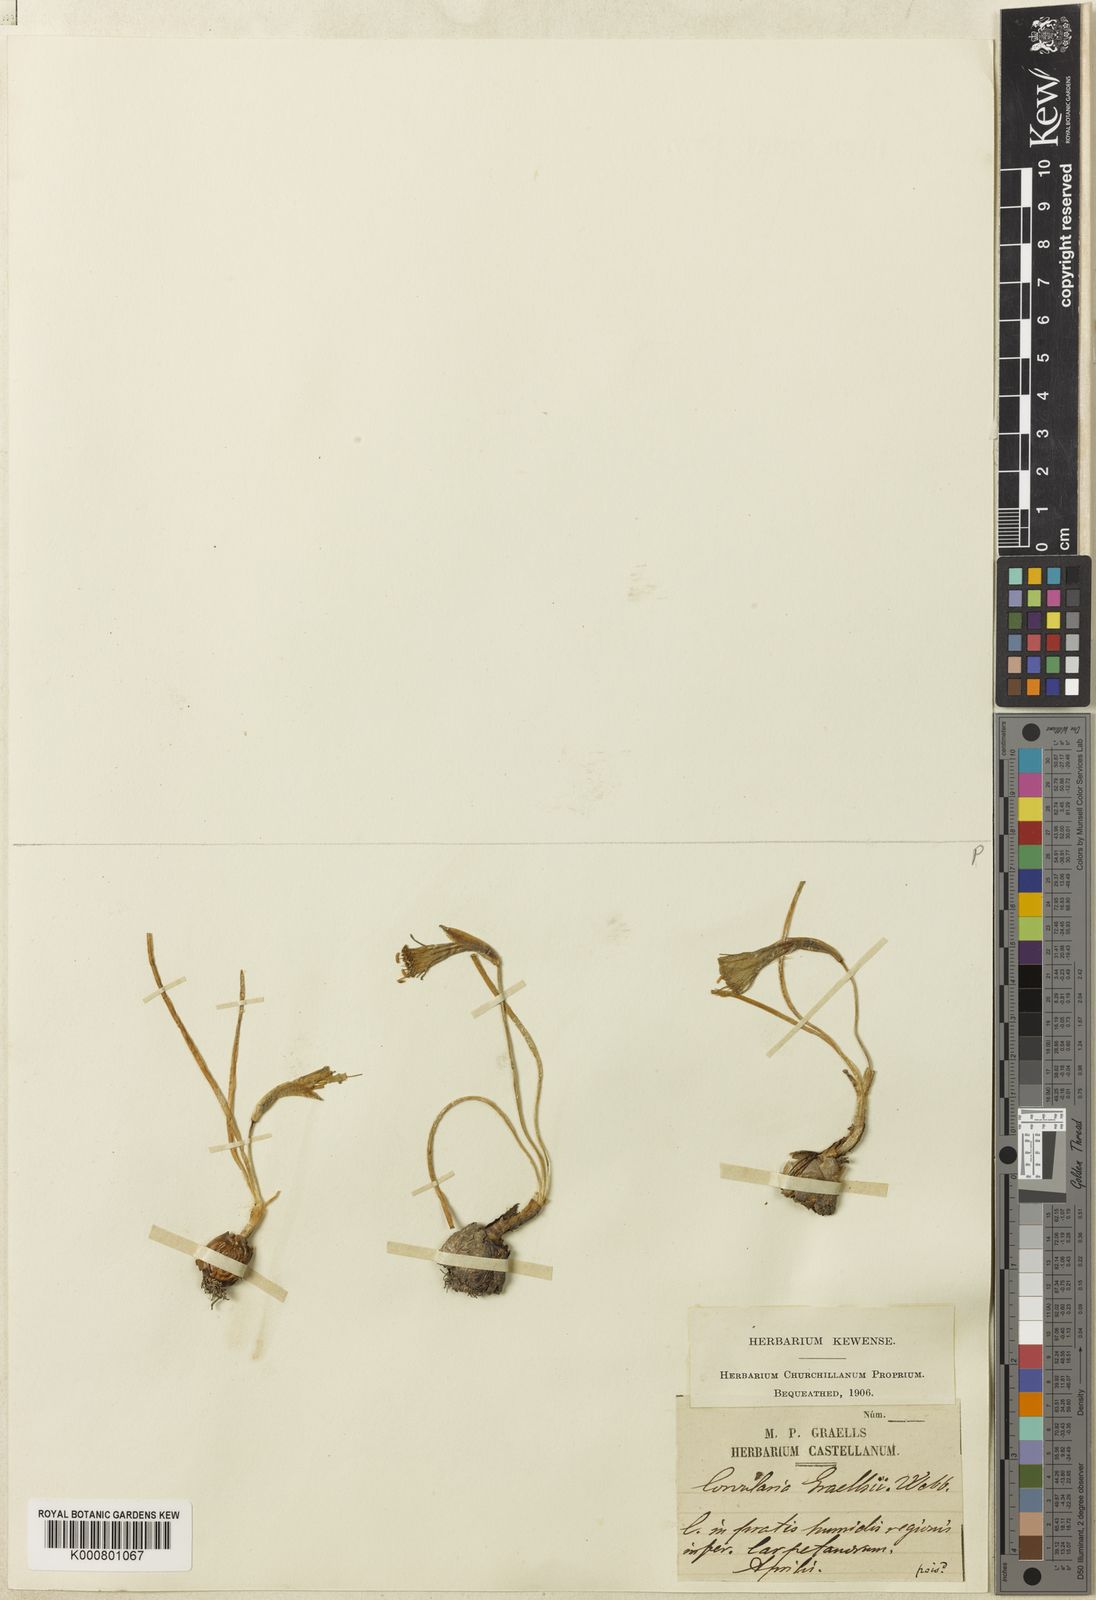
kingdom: Plantae
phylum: Tracheophyta
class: Liliopsida
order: Asparagales
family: Amaryllidaceae
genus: Narcissus
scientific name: Narcissus bulbocodium
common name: Hoop-petticoat daffodil
